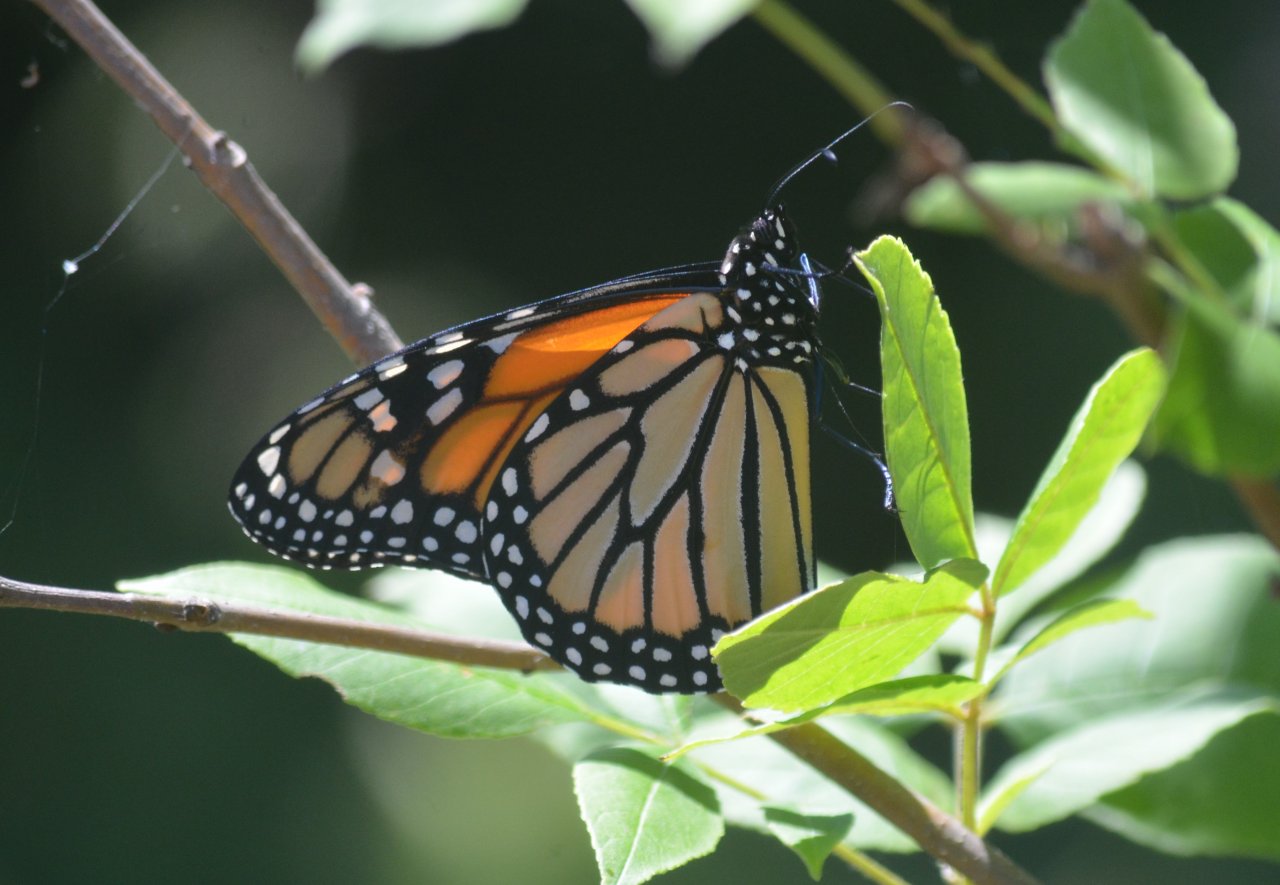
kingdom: Animalia
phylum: Arthropoda
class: Insecta
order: Lepidoptera
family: Nymphalidae
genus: Danaus
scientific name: Danaus plexippus
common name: Monarch
